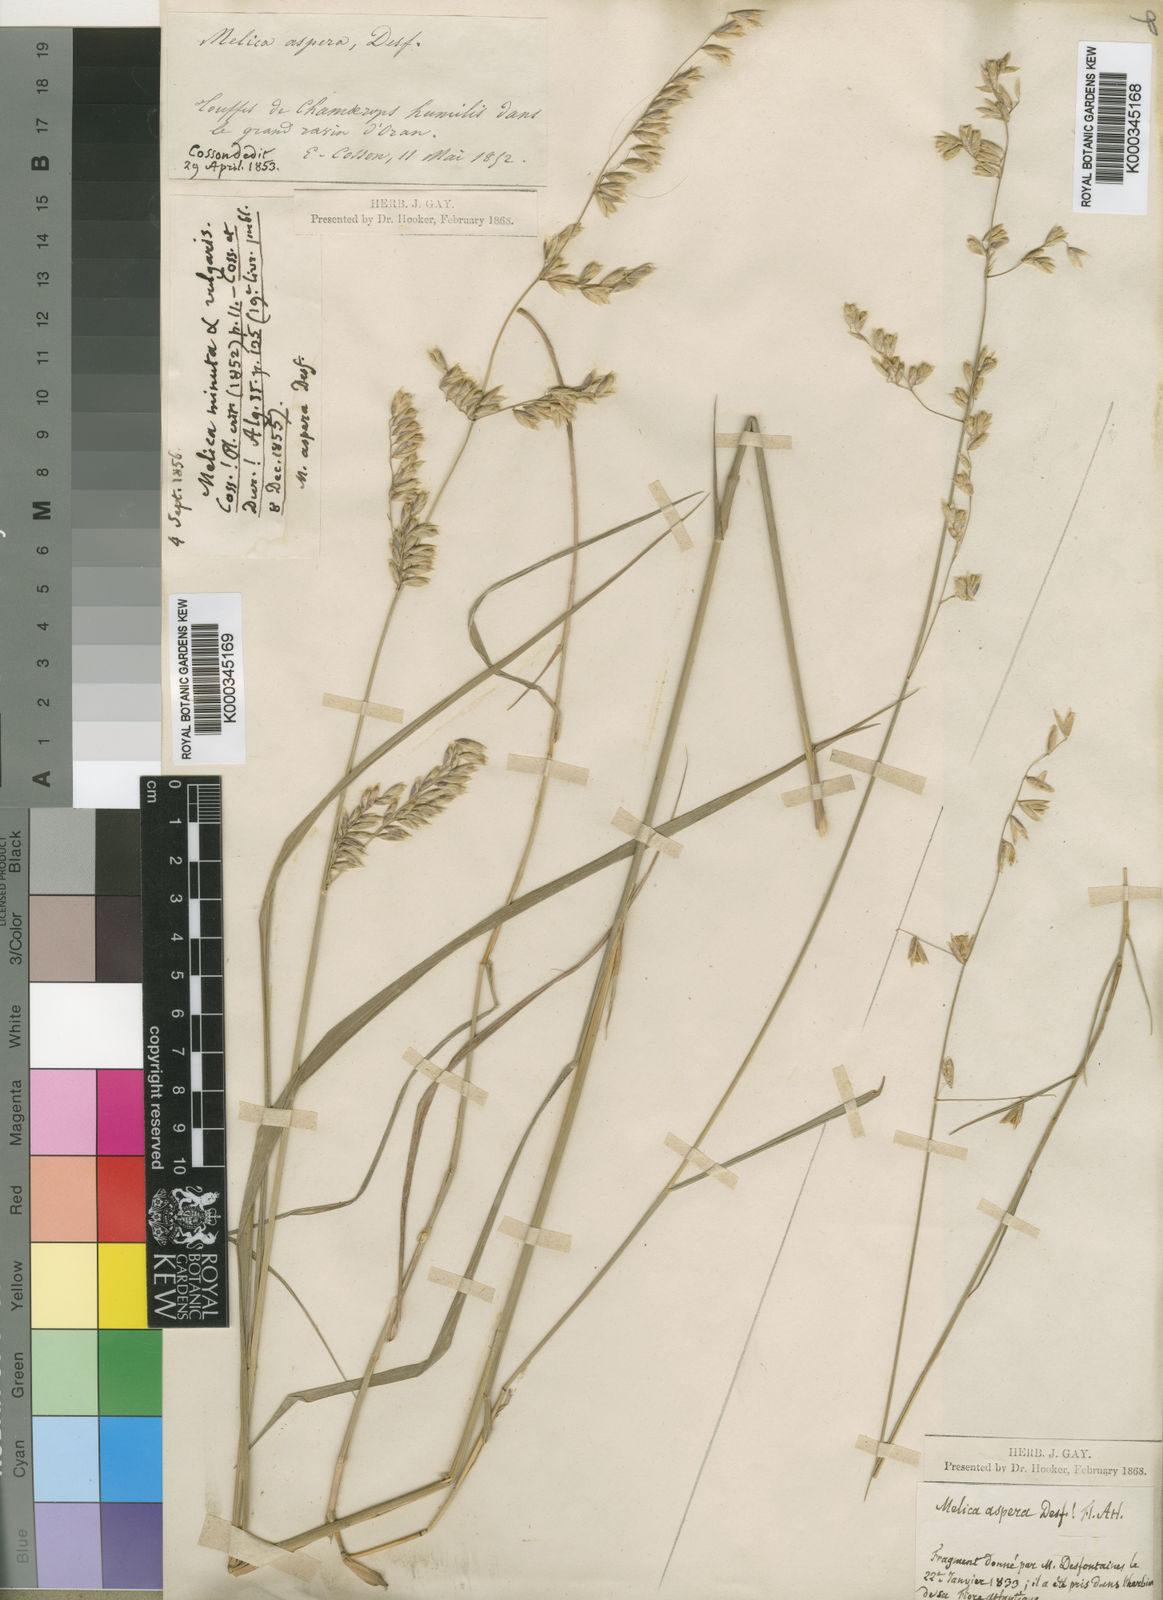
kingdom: Plantae
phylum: Tracheophyta
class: Liliopsida
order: Poales
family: Poaceae
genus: Ehrharta
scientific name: Ehrharta ramosa
